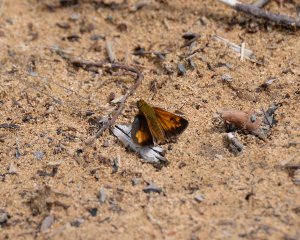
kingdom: Animalia
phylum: Arthropoda
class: Insecta
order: Lepidoptera
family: Hesperiidae
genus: Lon
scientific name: Lon hobomok
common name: Hobomok Skipper
